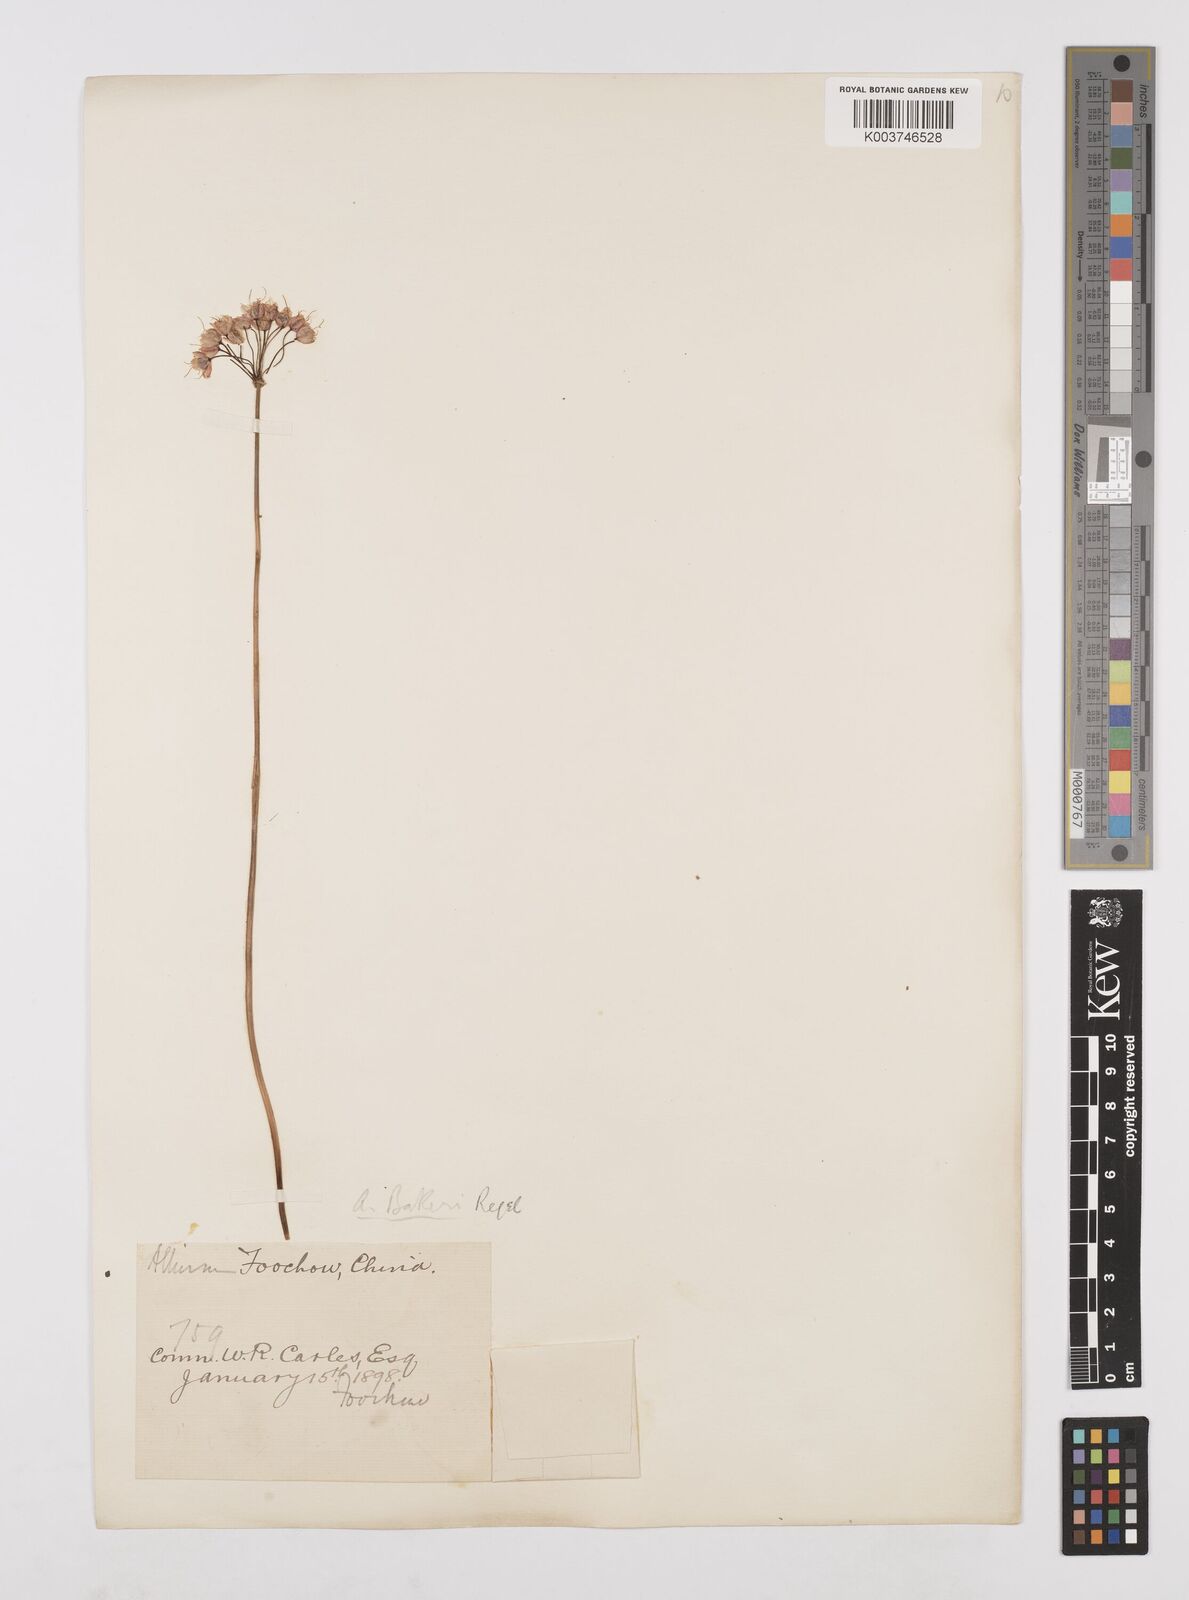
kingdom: Plantae
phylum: Tracheophyta
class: Liliopsida
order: Asparagales
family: Amaryllidaceae
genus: Allium
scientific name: Allium chinense
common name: Japanese scallion
